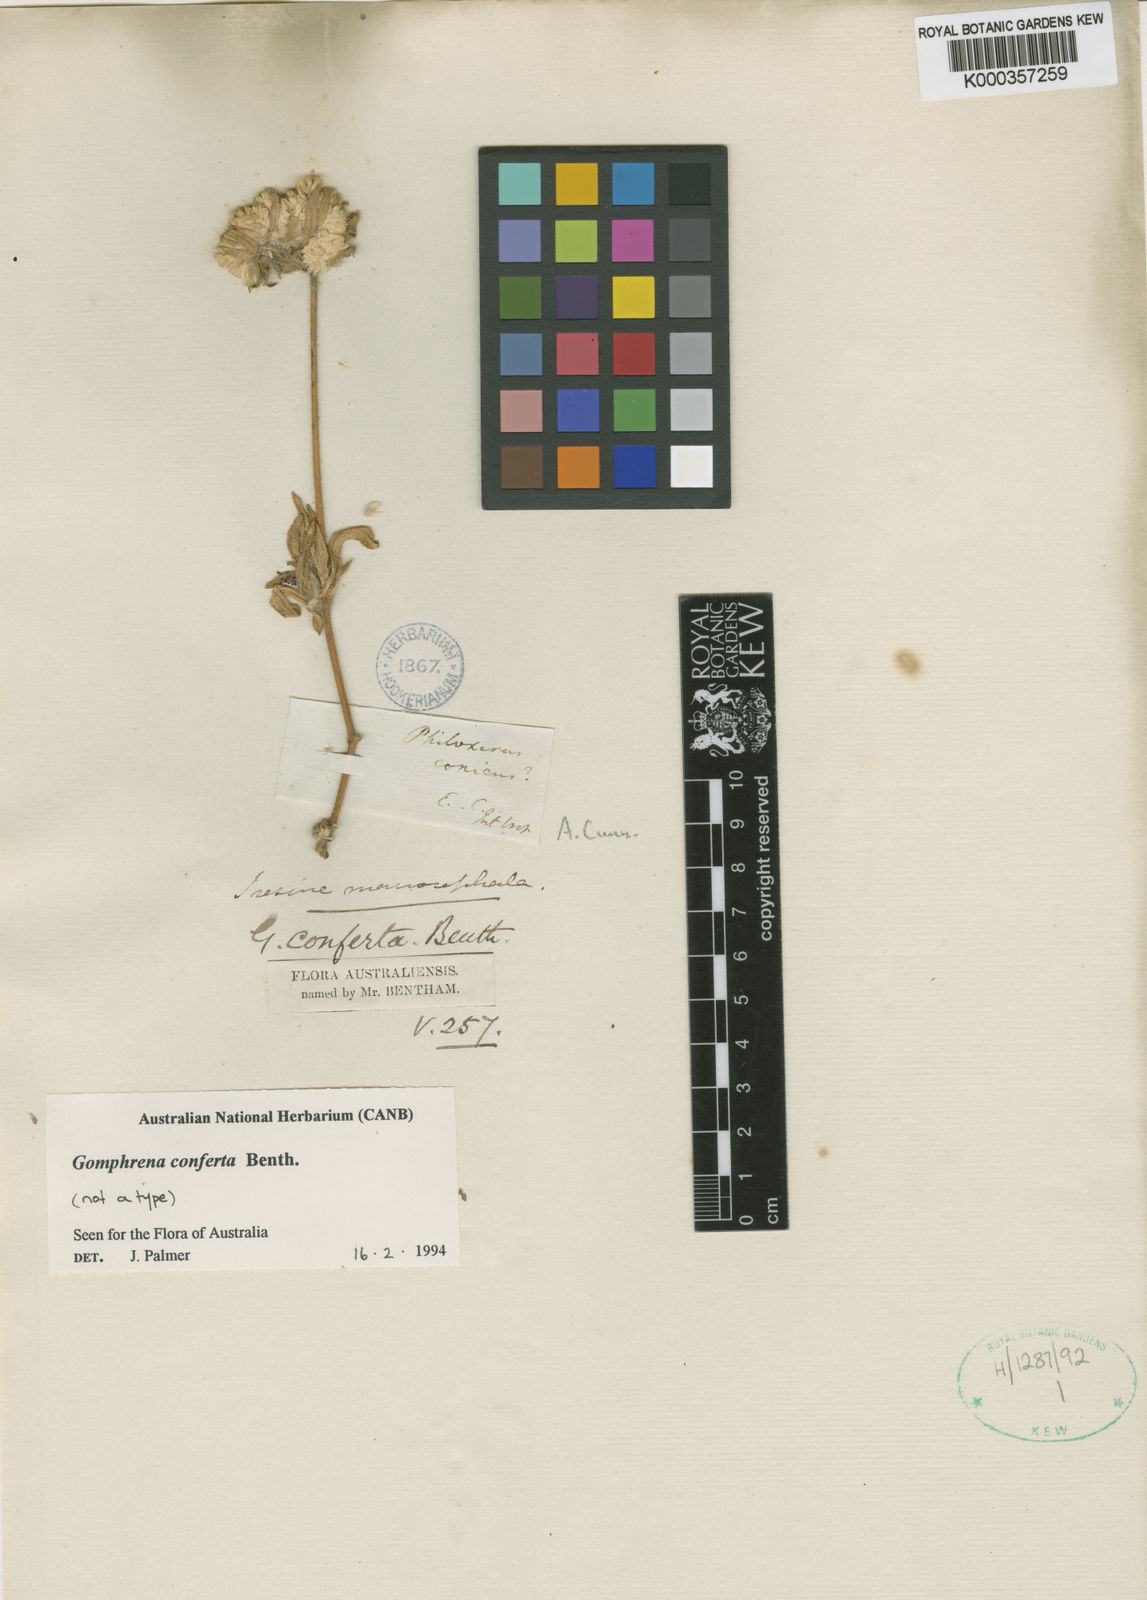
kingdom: Plantae
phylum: Tracheophyta
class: Magnoliopsida
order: Caryophyllales
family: Amaranthaceae
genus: Gomphrena
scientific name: Gomphrena conferta
